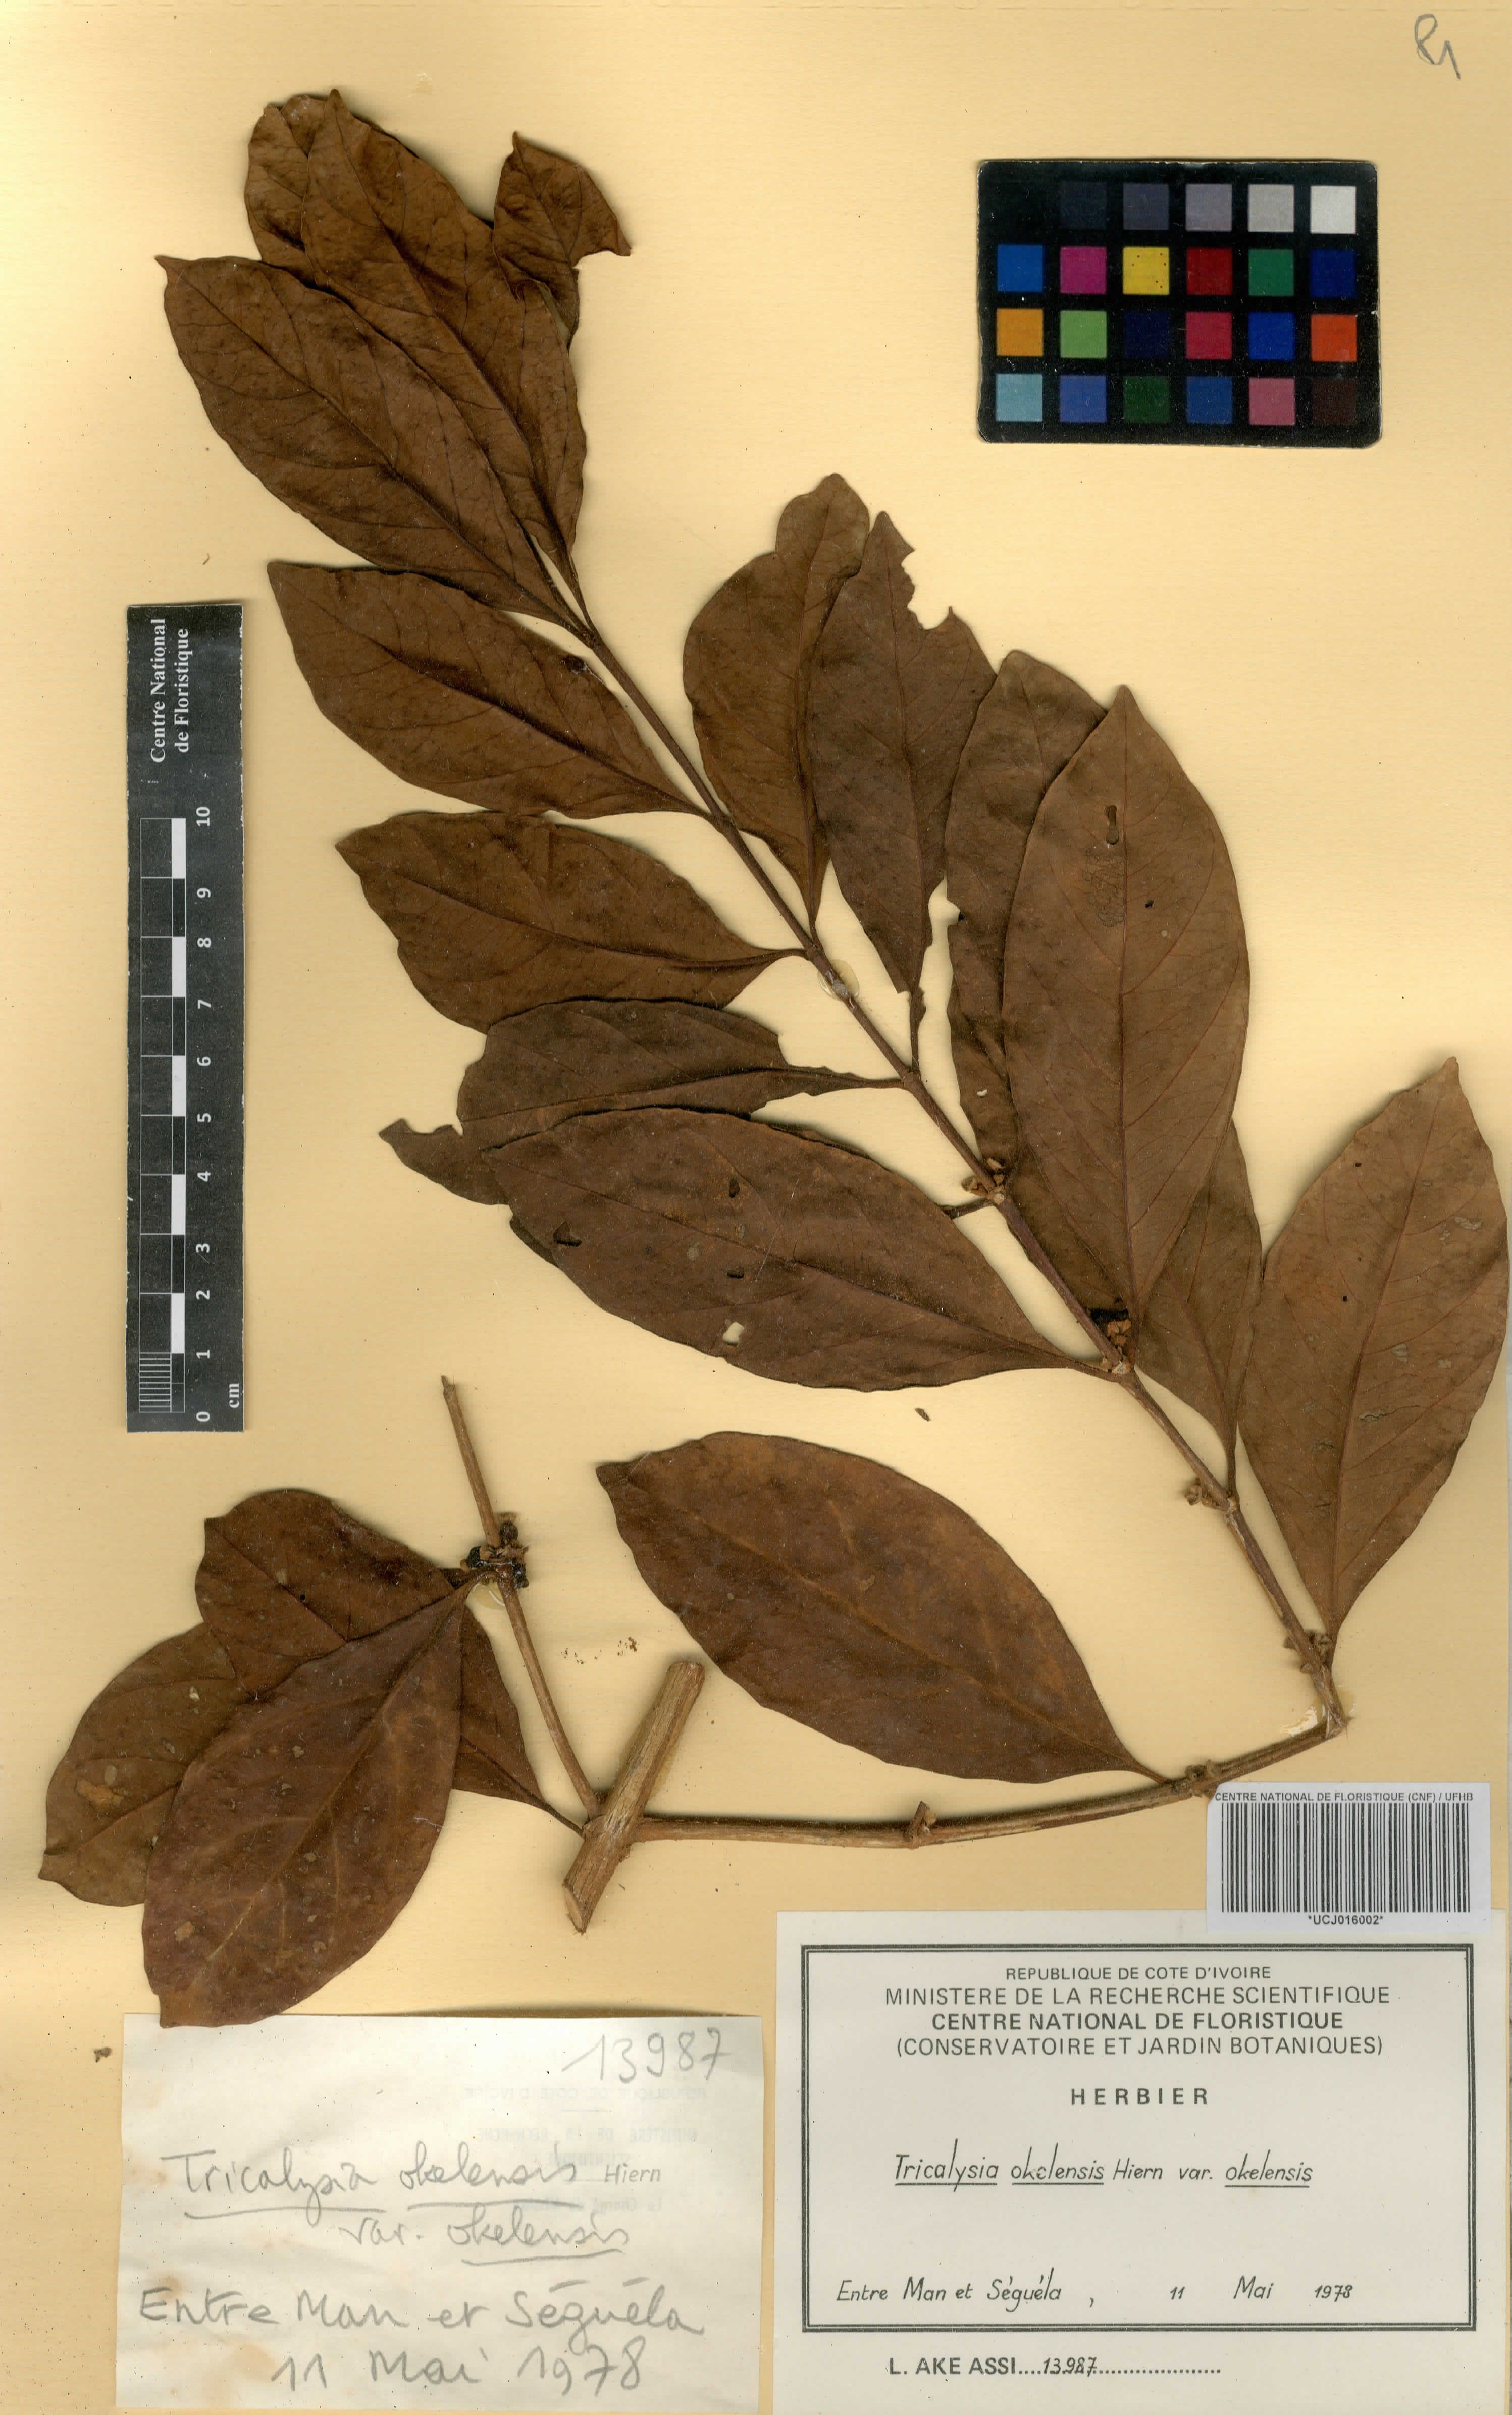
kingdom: Plantae
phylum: Tracheophyta
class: Magnoliopsida
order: Gentianales
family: Rubiaceae
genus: Tricalysia
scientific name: Tricalysia okelensis
